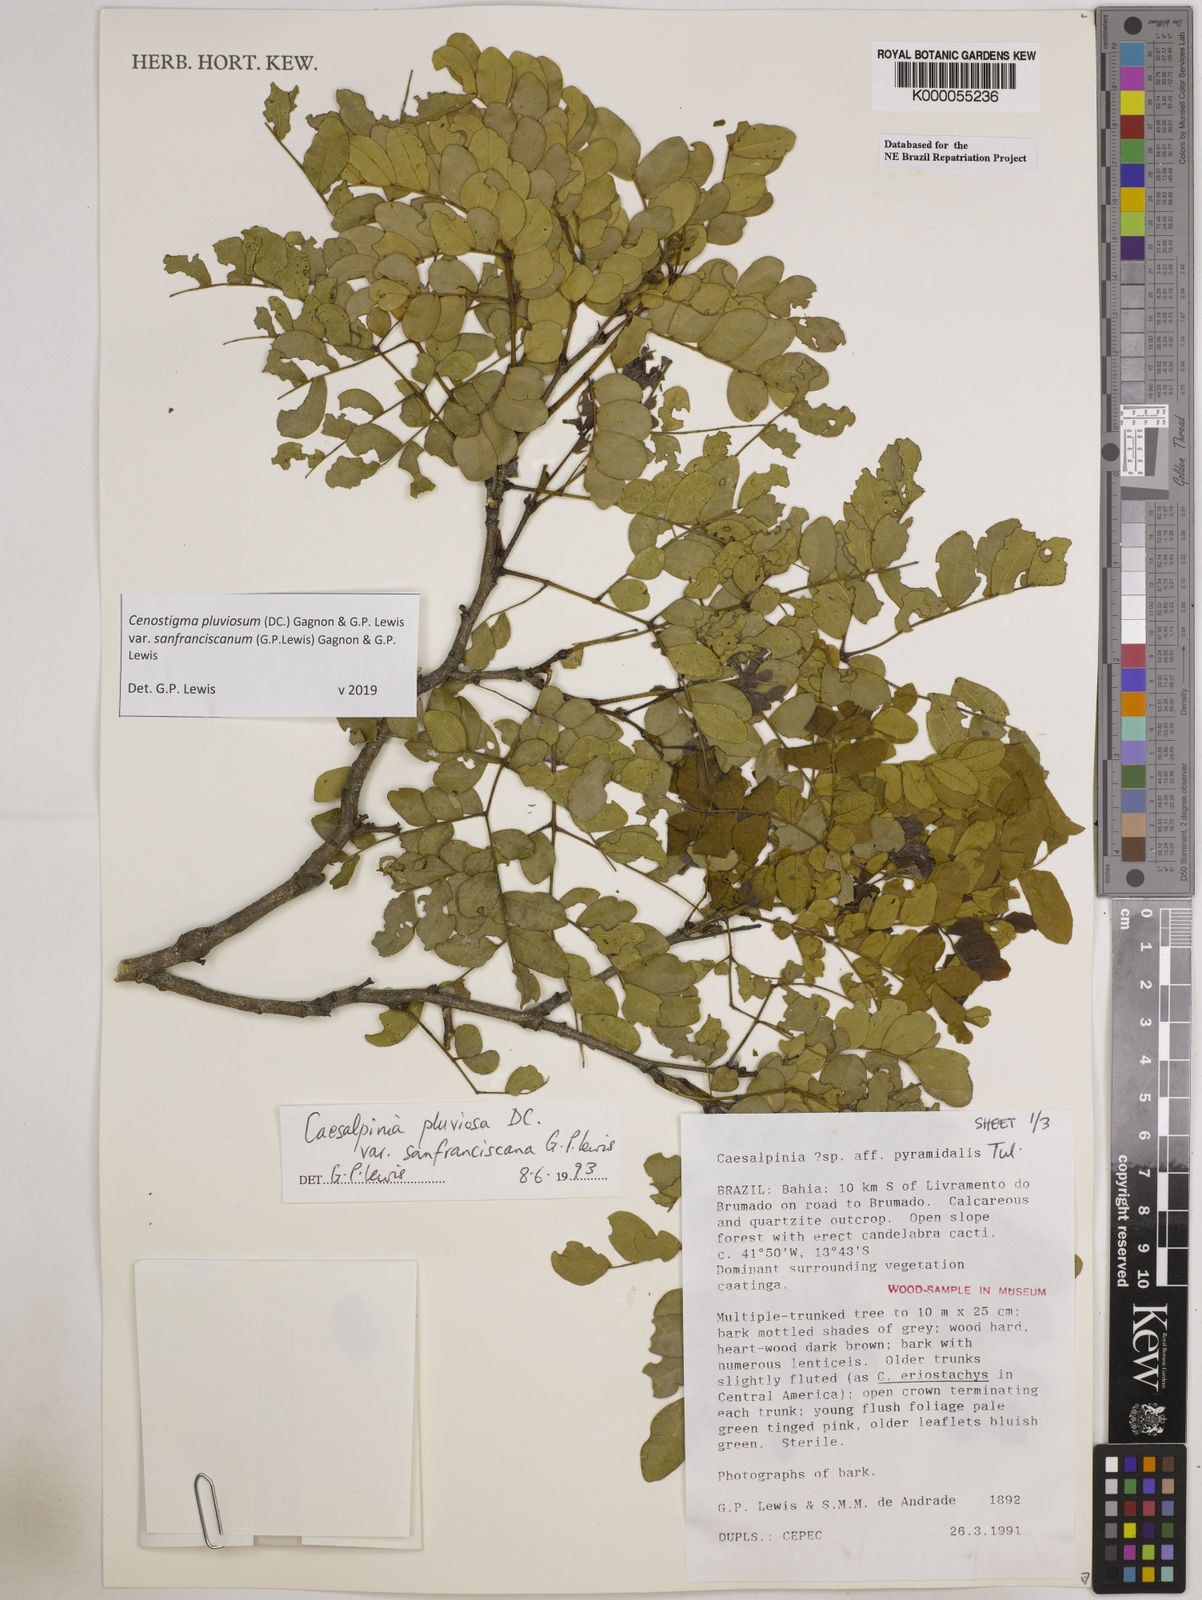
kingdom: Plantae
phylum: Tracheophyta
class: Magnoliopsida
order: Fabales
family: Fabaceae
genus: Cenostigma
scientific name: Cenostigma pluviosum
